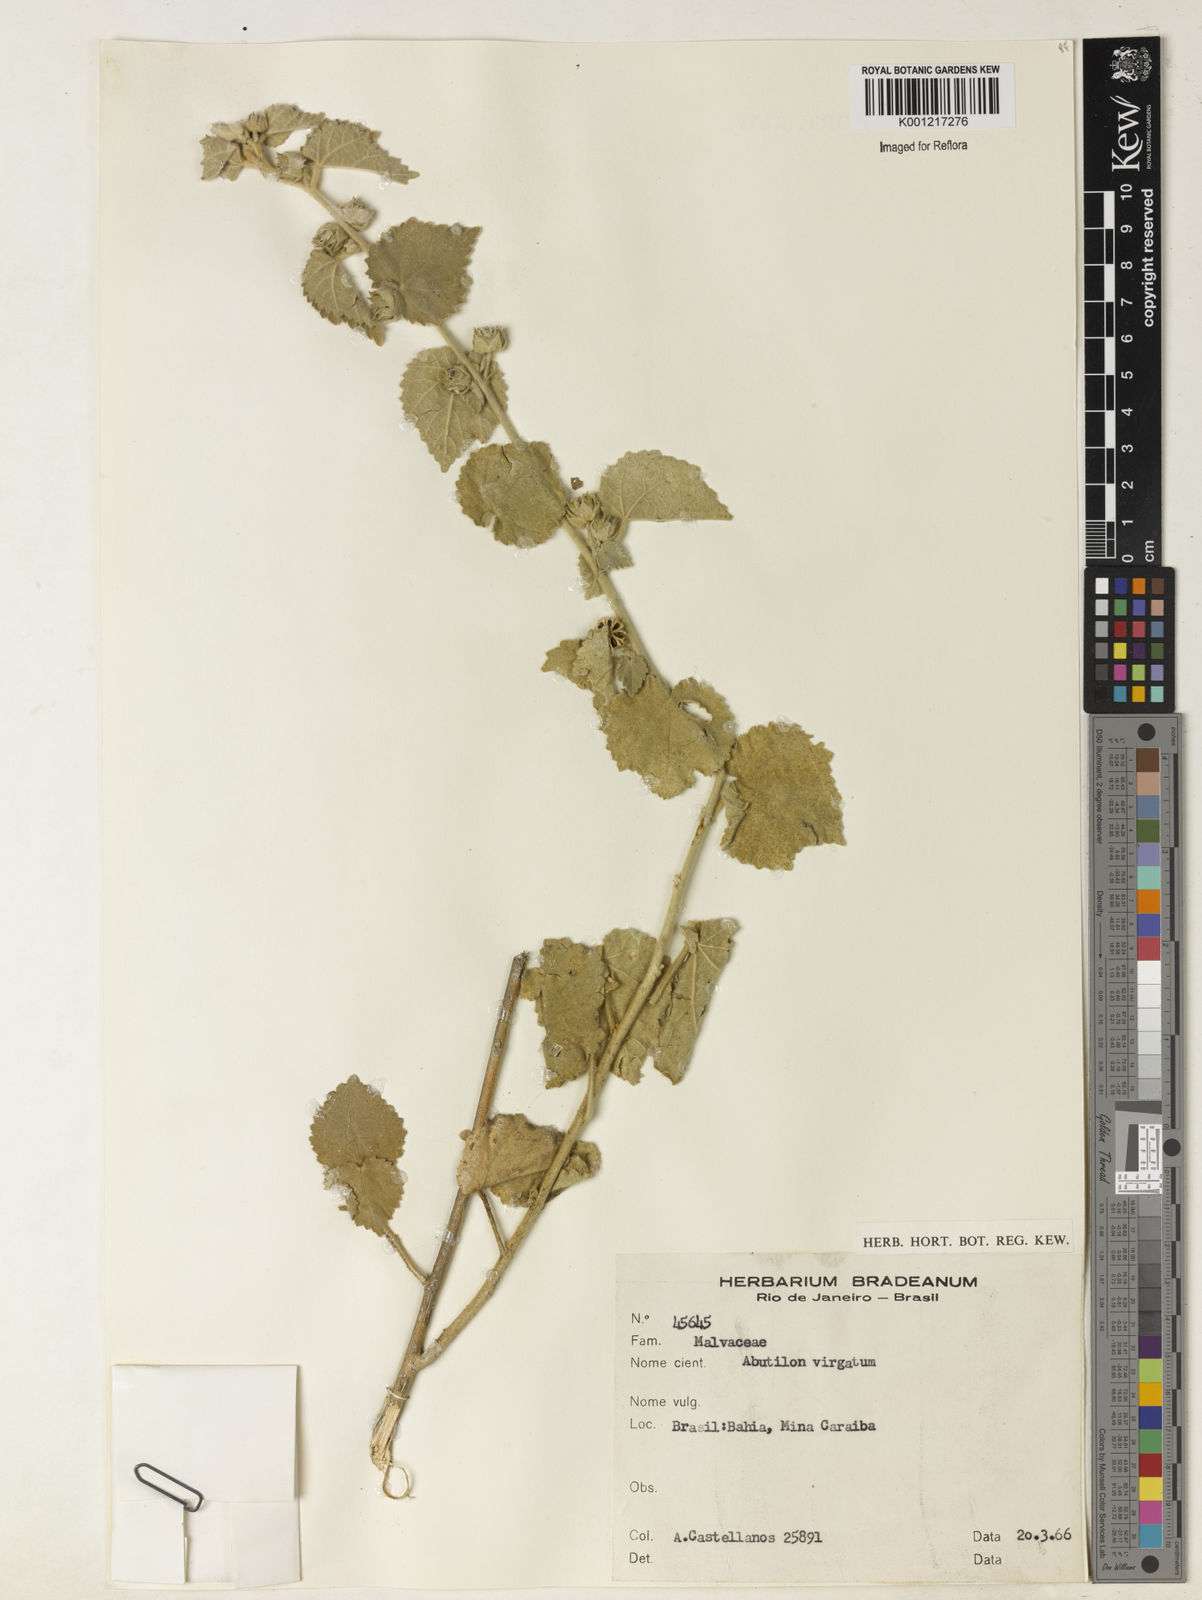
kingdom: Plantae
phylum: Tracheophyta
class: Magnoliopsida
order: Malvales
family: Malvaceae
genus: Pseudabutilon
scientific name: Pseudabutilon virgatum
